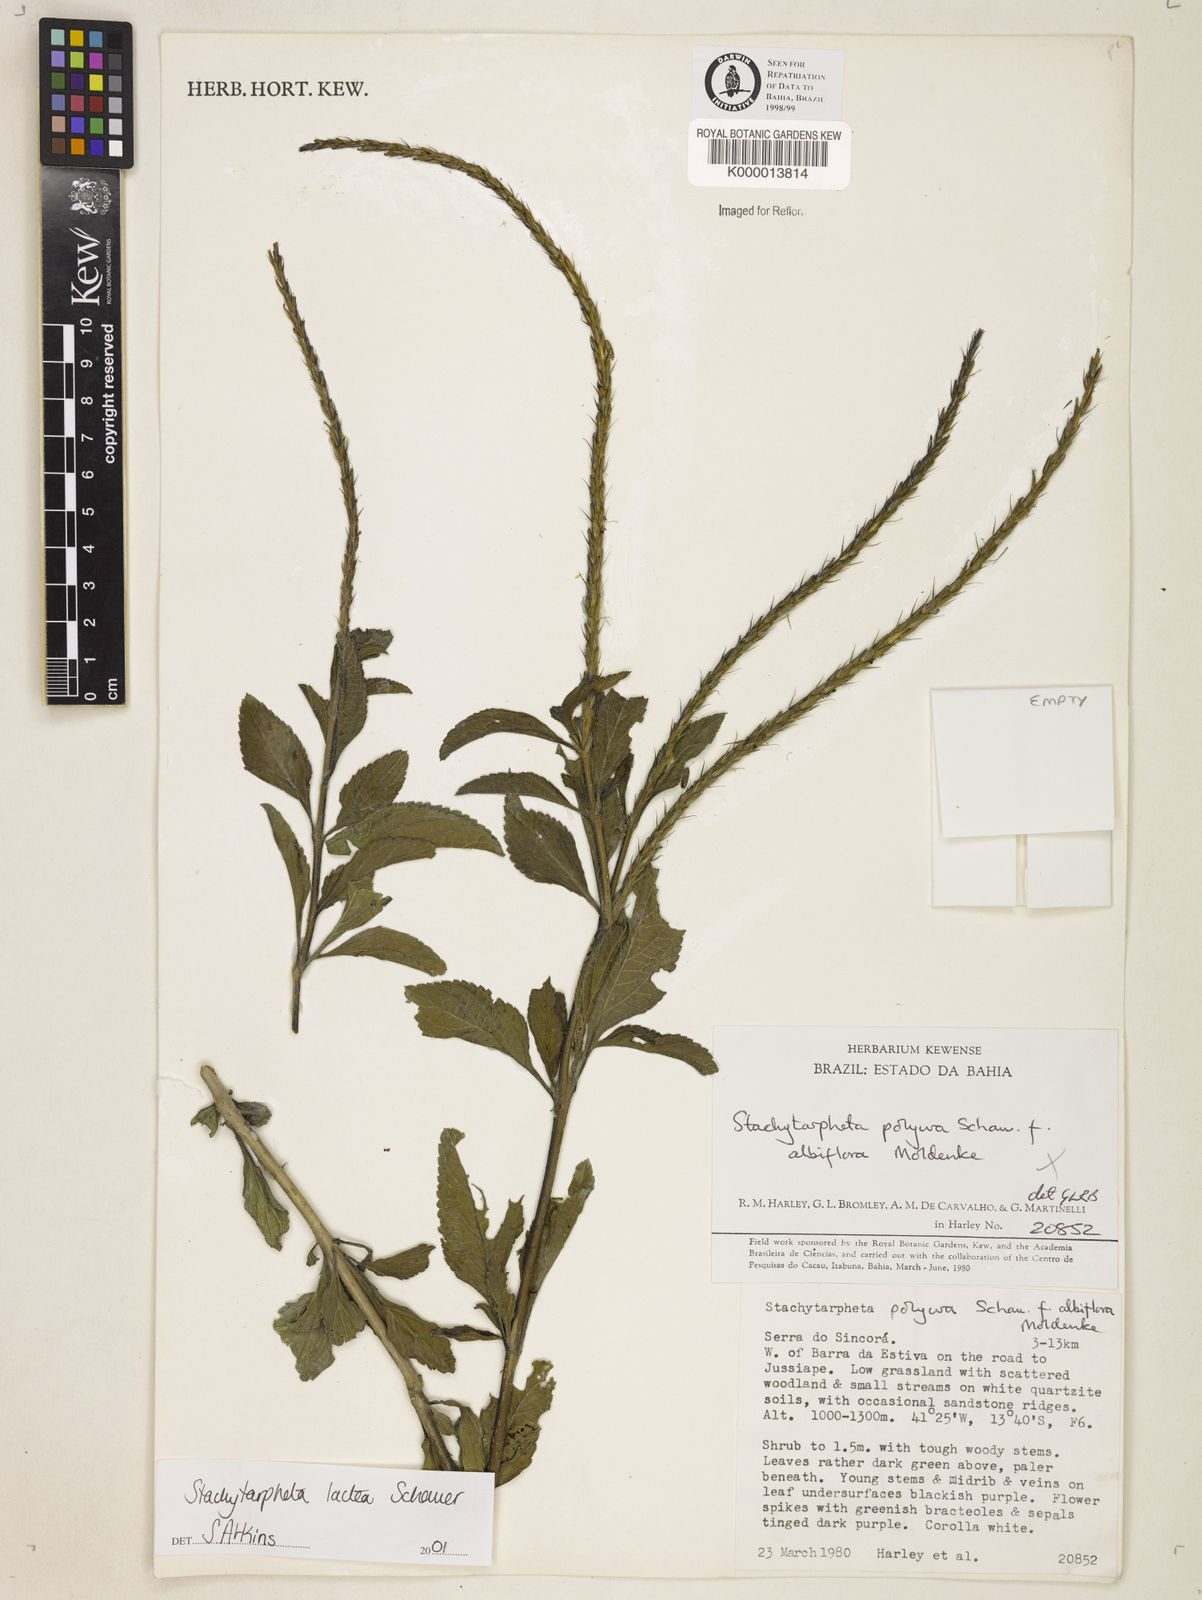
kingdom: Plantae
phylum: Tracheophyta
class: Magnoliopsida
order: Lamiales
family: Verbenaceae
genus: Stachytarpheta
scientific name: Stachytarpheta polyura
